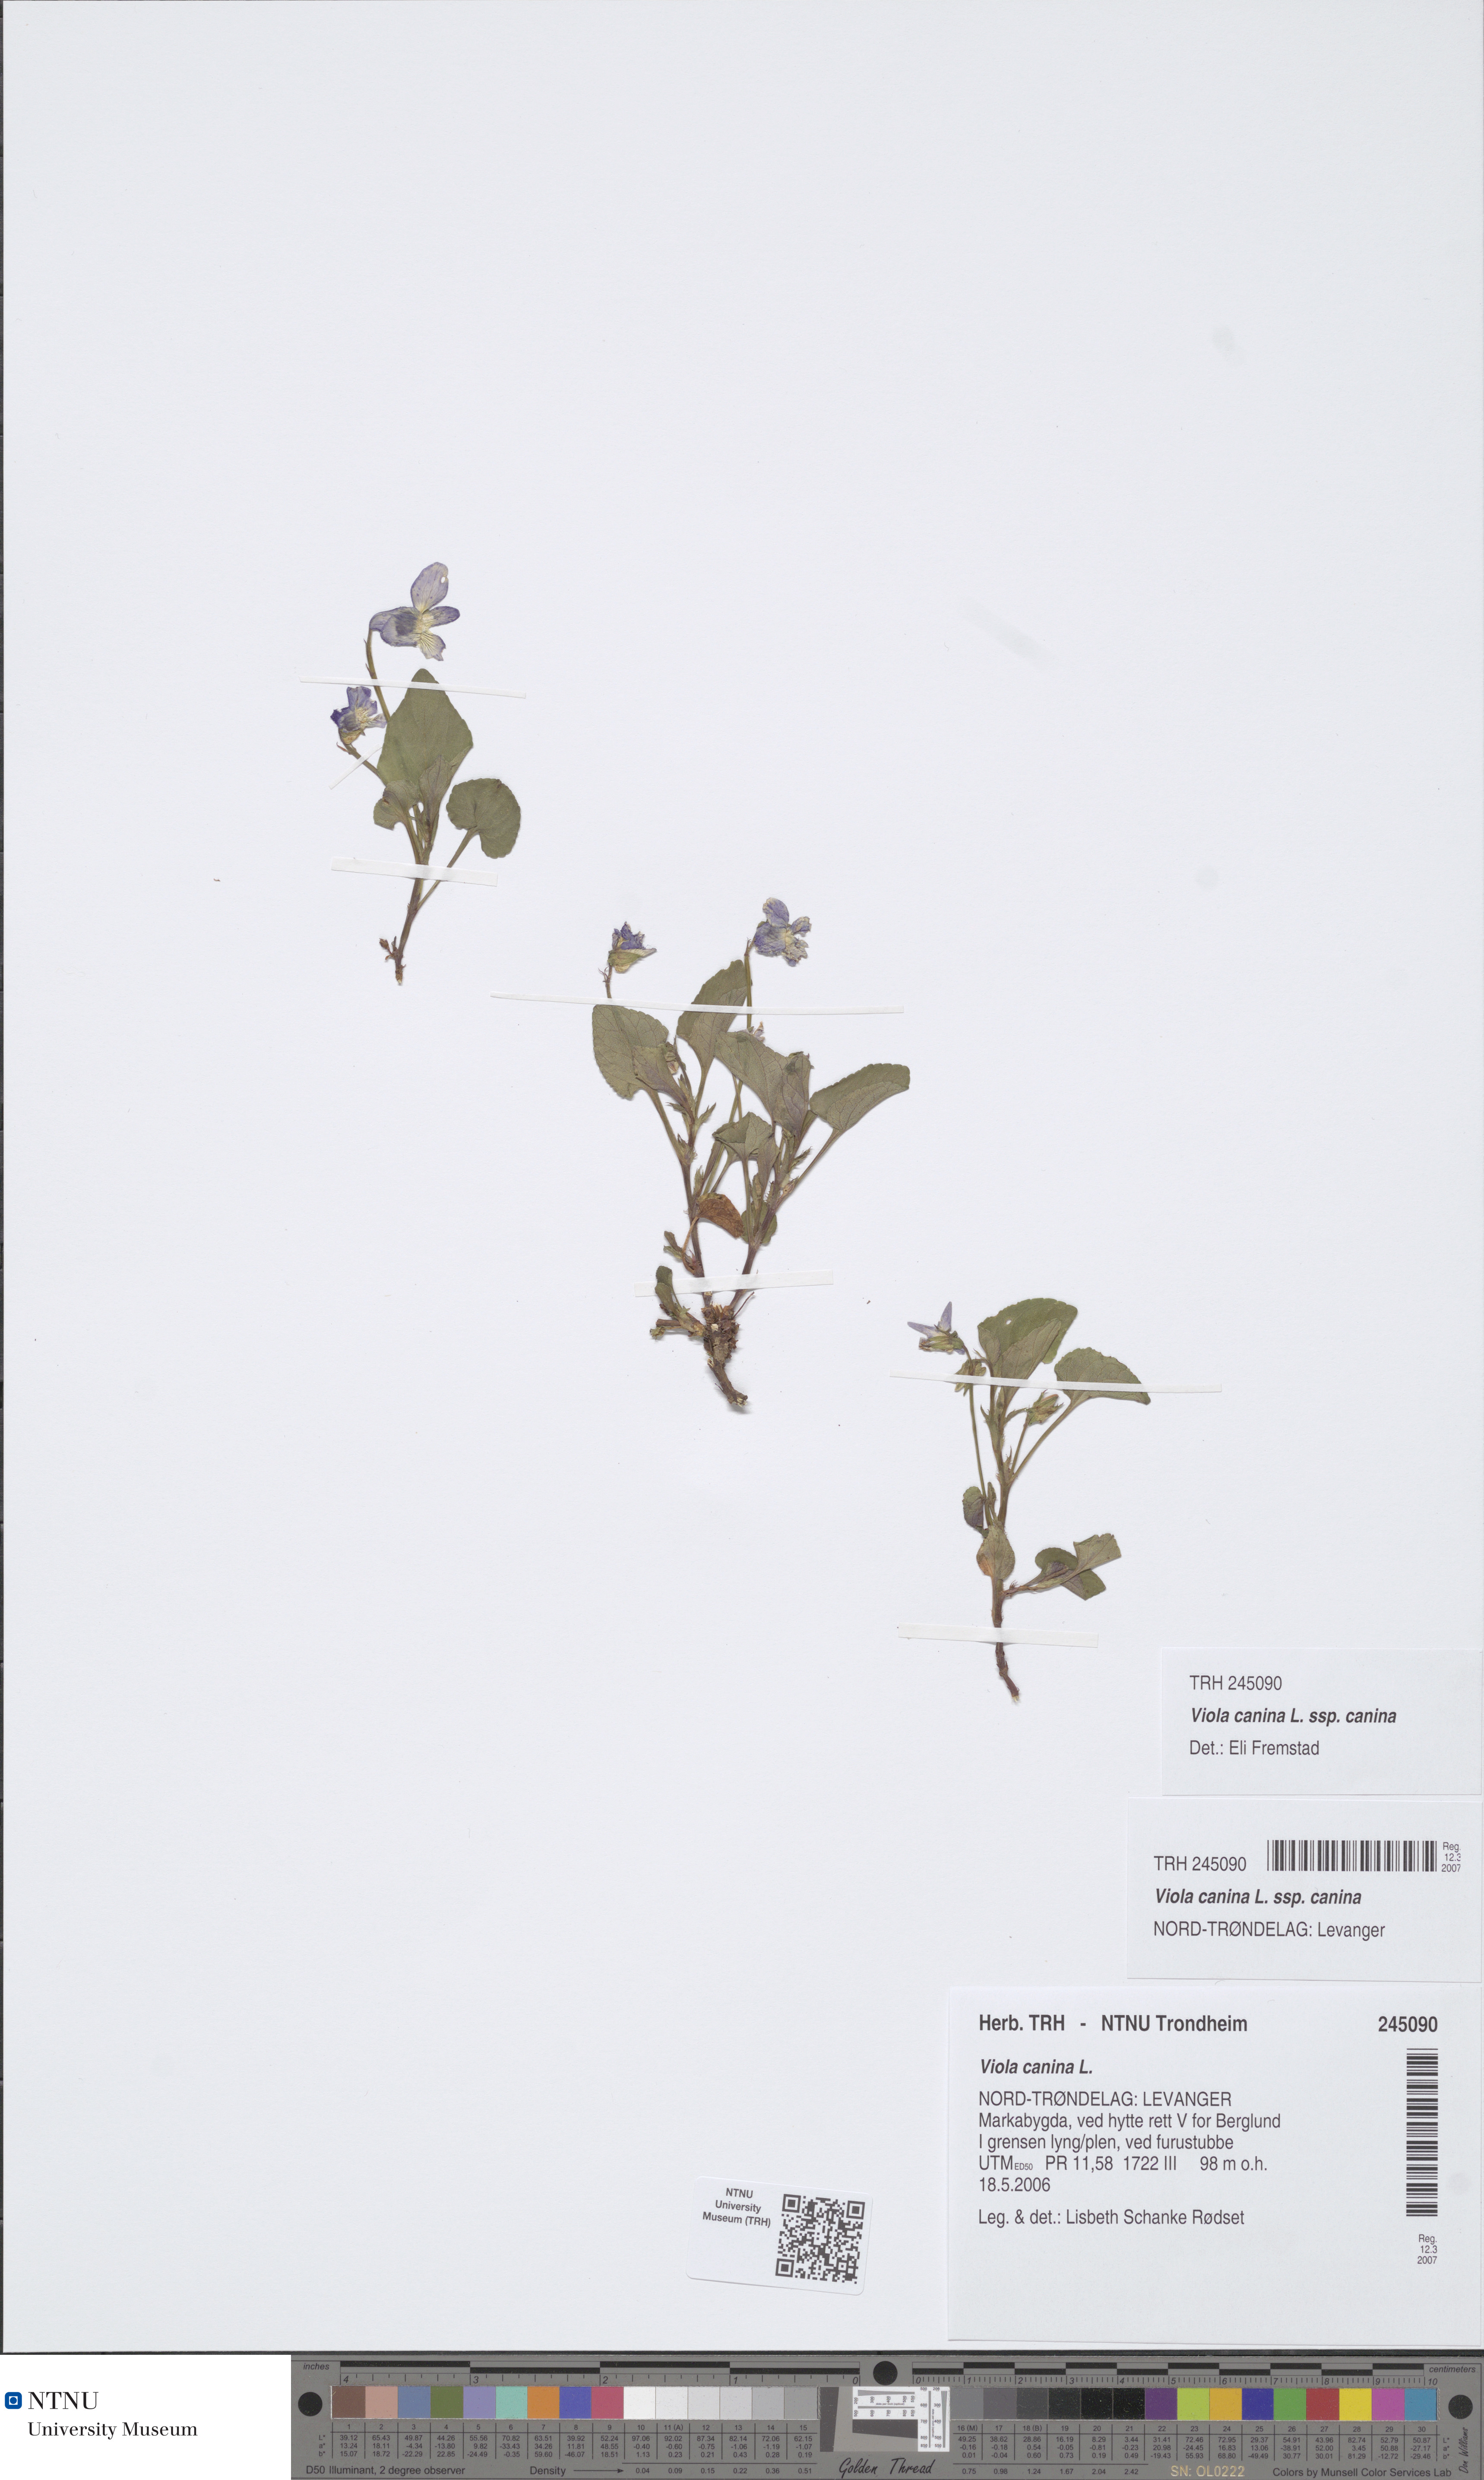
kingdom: Plantae
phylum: Tracheophyta
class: Magnoliopsida
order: Malpighiales
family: Violaceae
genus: Viola
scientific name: Viola canina
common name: Heath dog-violet
